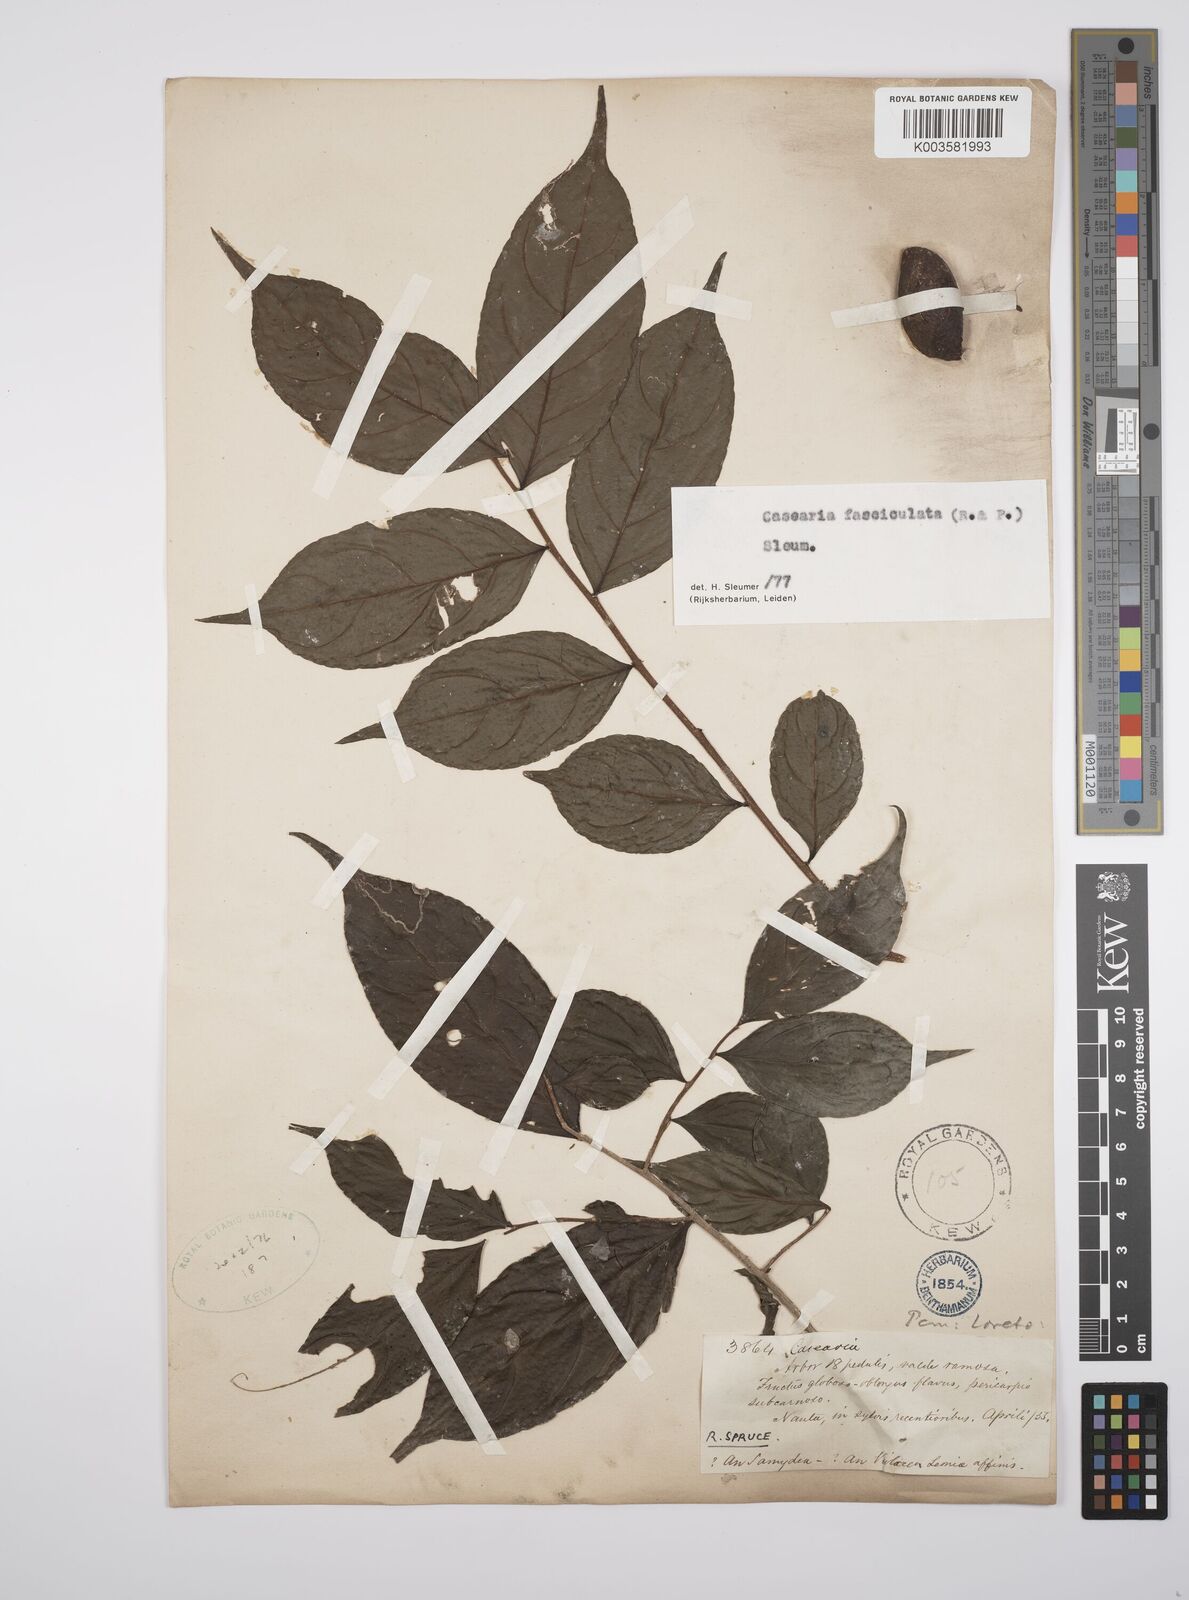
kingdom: Plantae
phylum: Tracheophyta
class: Magnoliopsida
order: Malpighiales
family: Salicaceae
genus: Casearia
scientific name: Casearia
